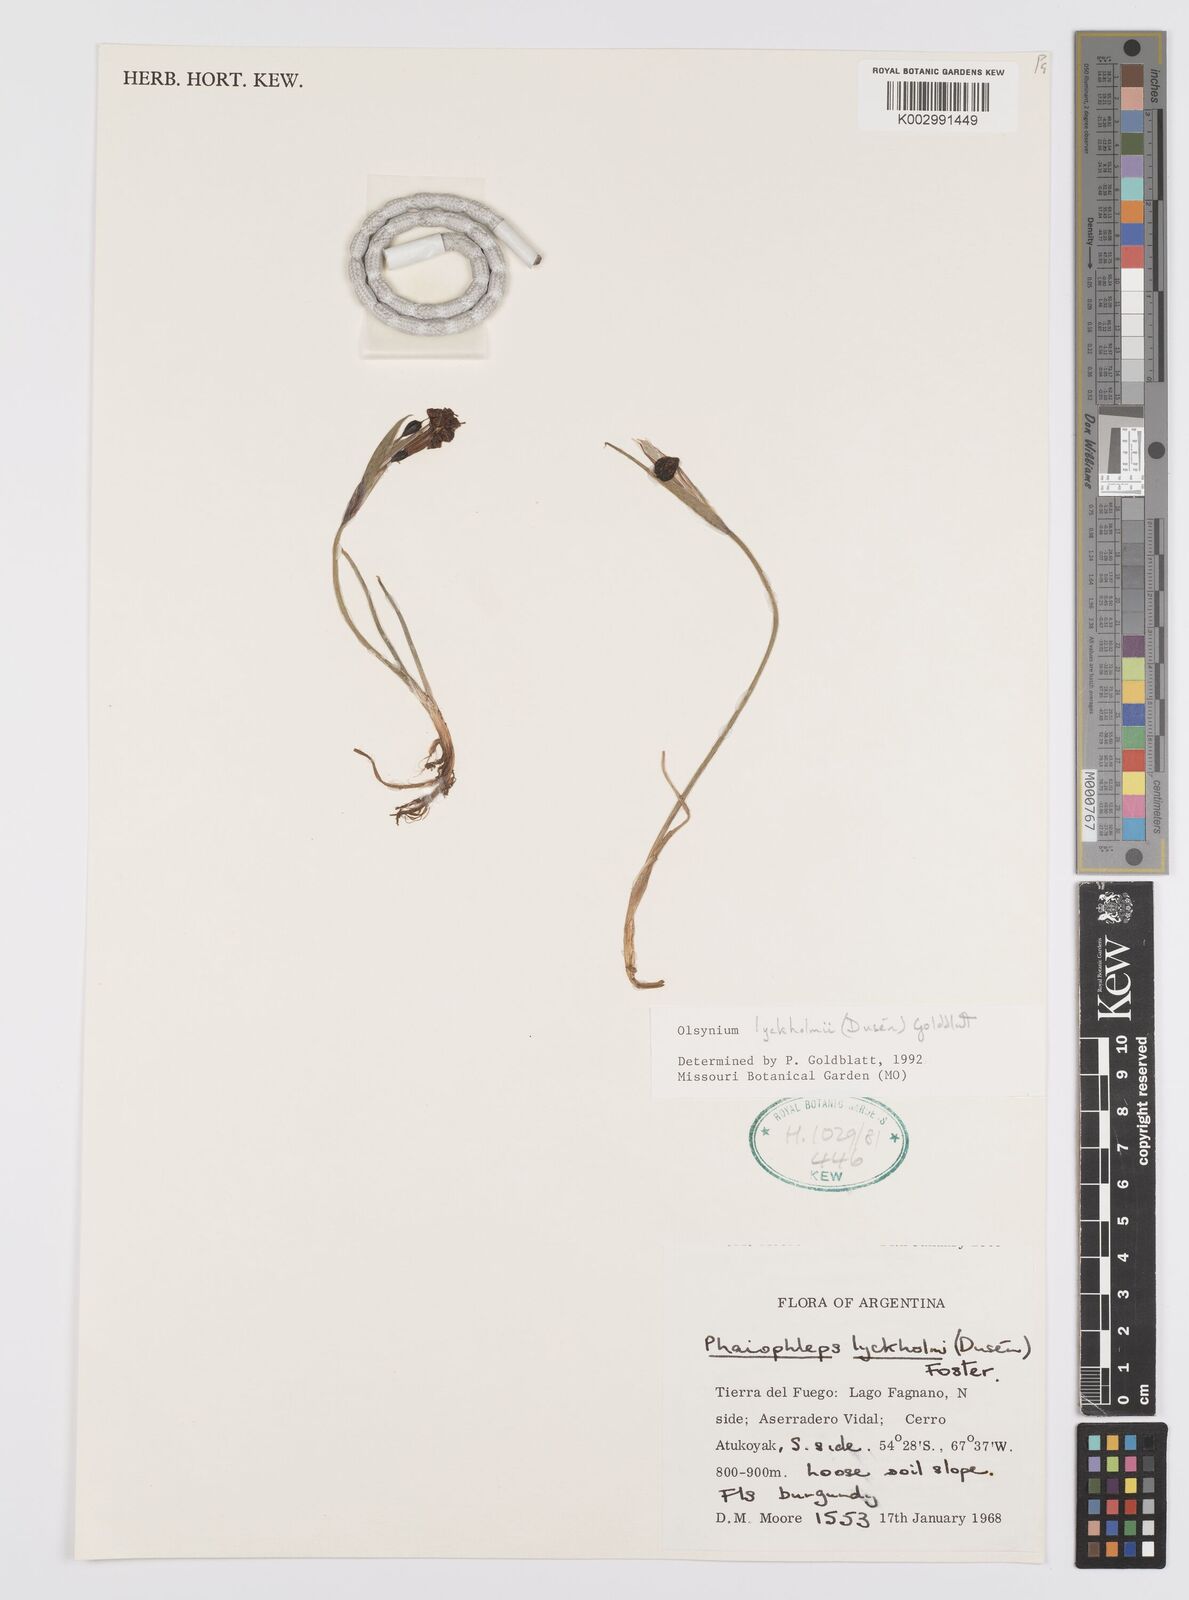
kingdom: Plantae
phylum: Tracheophyta
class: Liliopsida
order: Asparagales
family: Iridaceae
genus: Olsynium
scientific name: Olsynium lyckholmii
